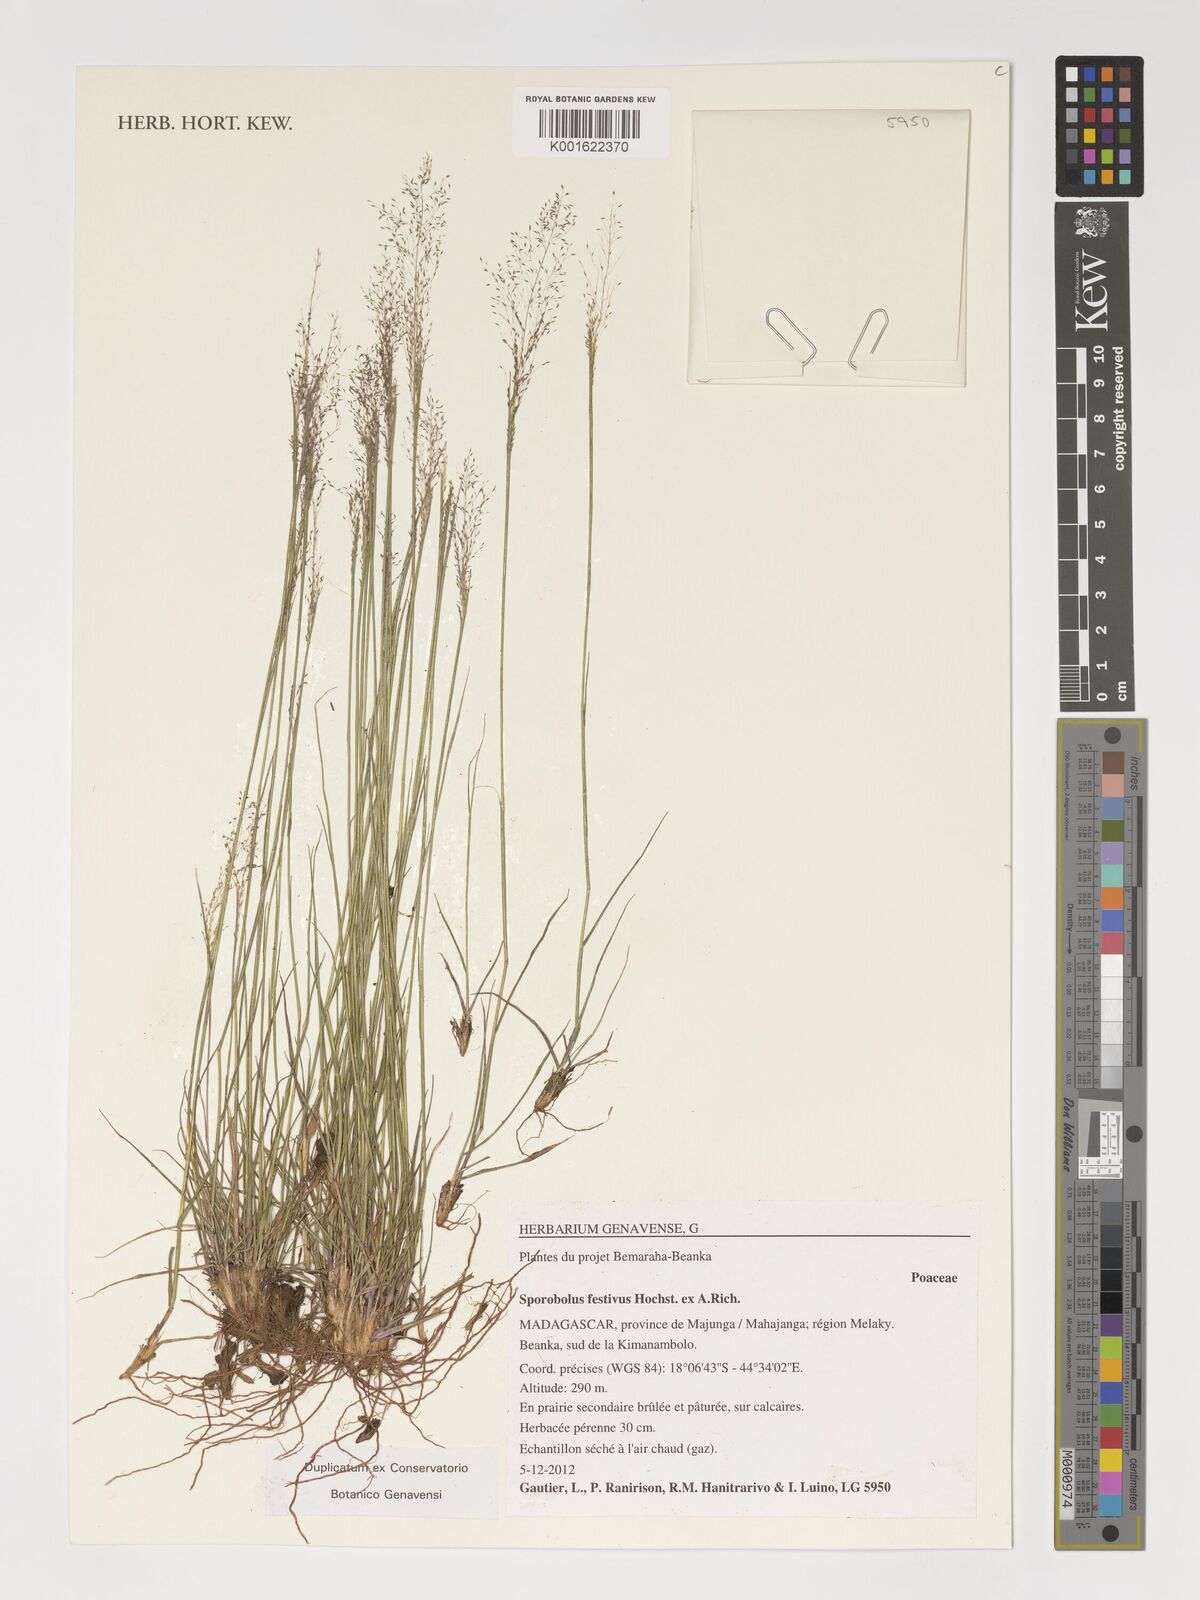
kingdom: Plantae
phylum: Tracheophyta
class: Liliopsida
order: Poales
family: Poaceae
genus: Sporobolus
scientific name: Sporobolus festivus
